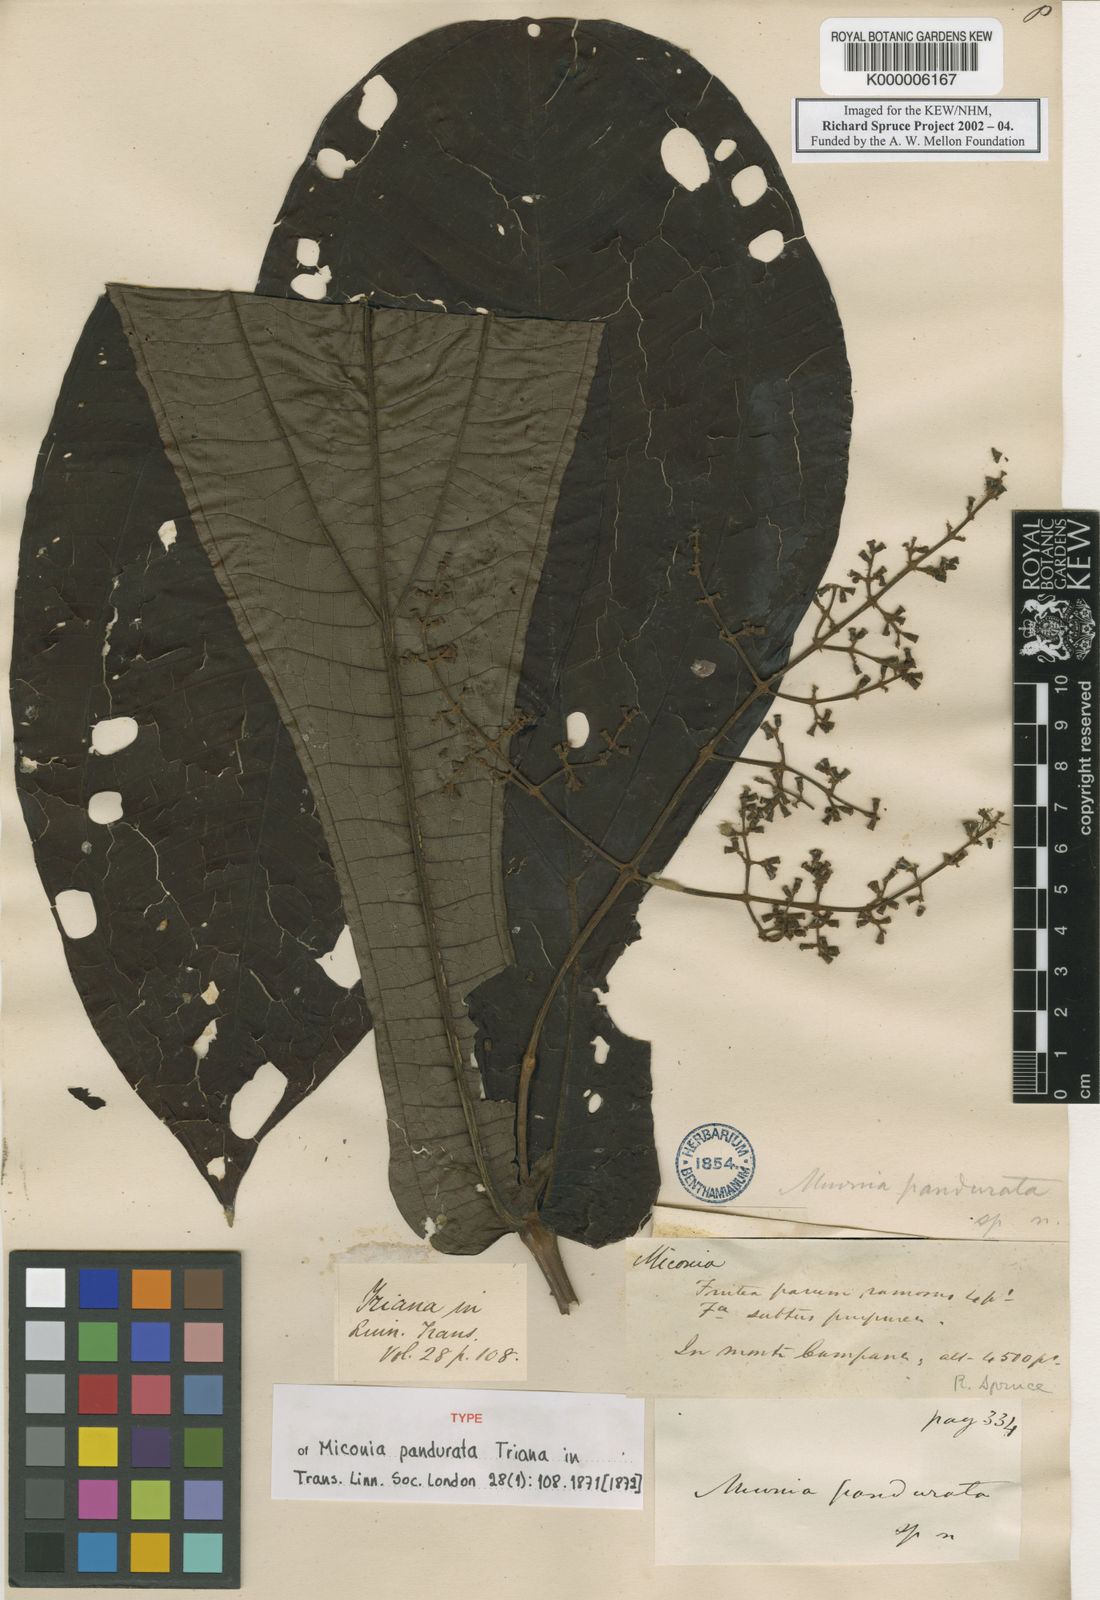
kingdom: Plantae
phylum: Tracheophyta
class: Magnoliopsida
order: Myrtales
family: Melastomataceae
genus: Miconia
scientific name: Miconia pandurata
